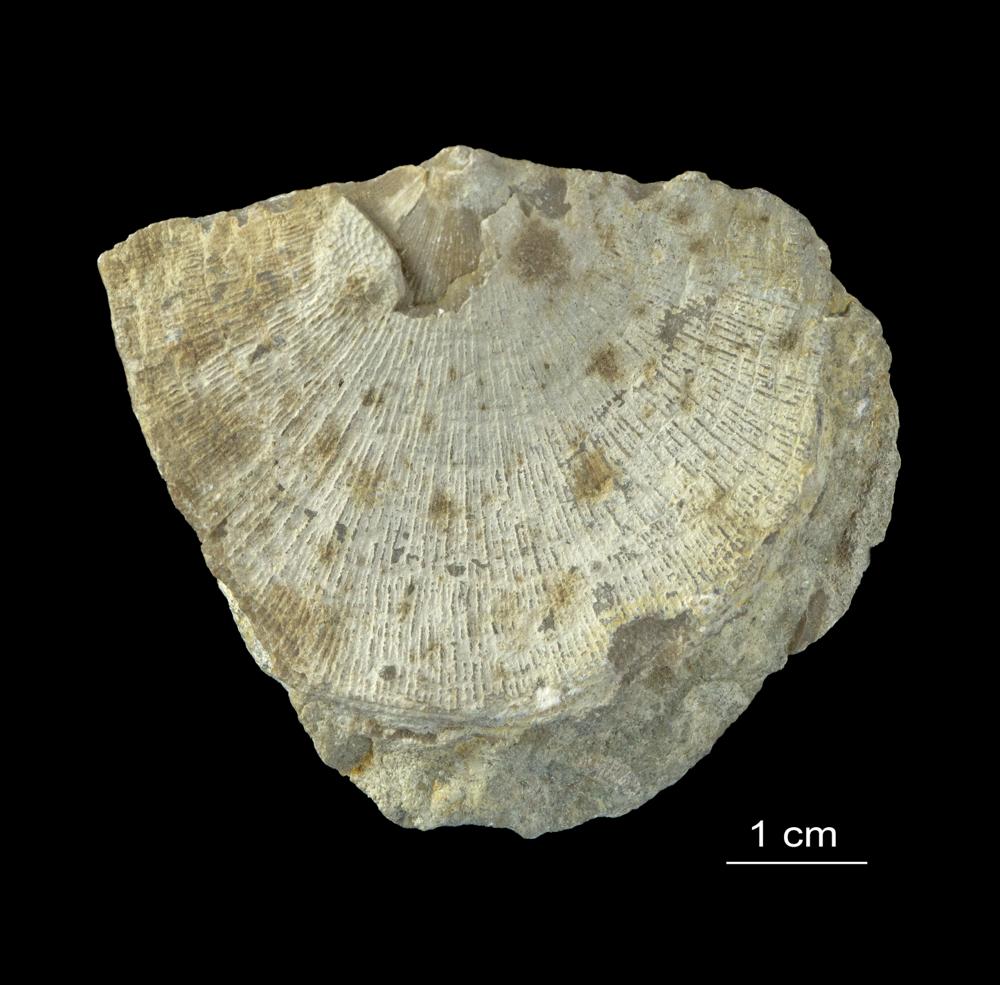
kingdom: Animalia
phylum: Brachiopoda
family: Gonambonitidae
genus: Antigonambonites
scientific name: Antigonambonites aequistriatus
